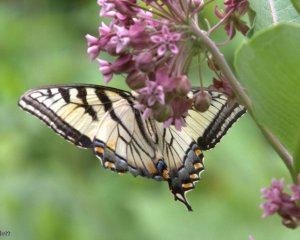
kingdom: Animalia
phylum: Arthropoda
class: Insecta
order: Lepidoptera
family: Papilionidae
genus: Pterourus
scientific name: Pterourus
